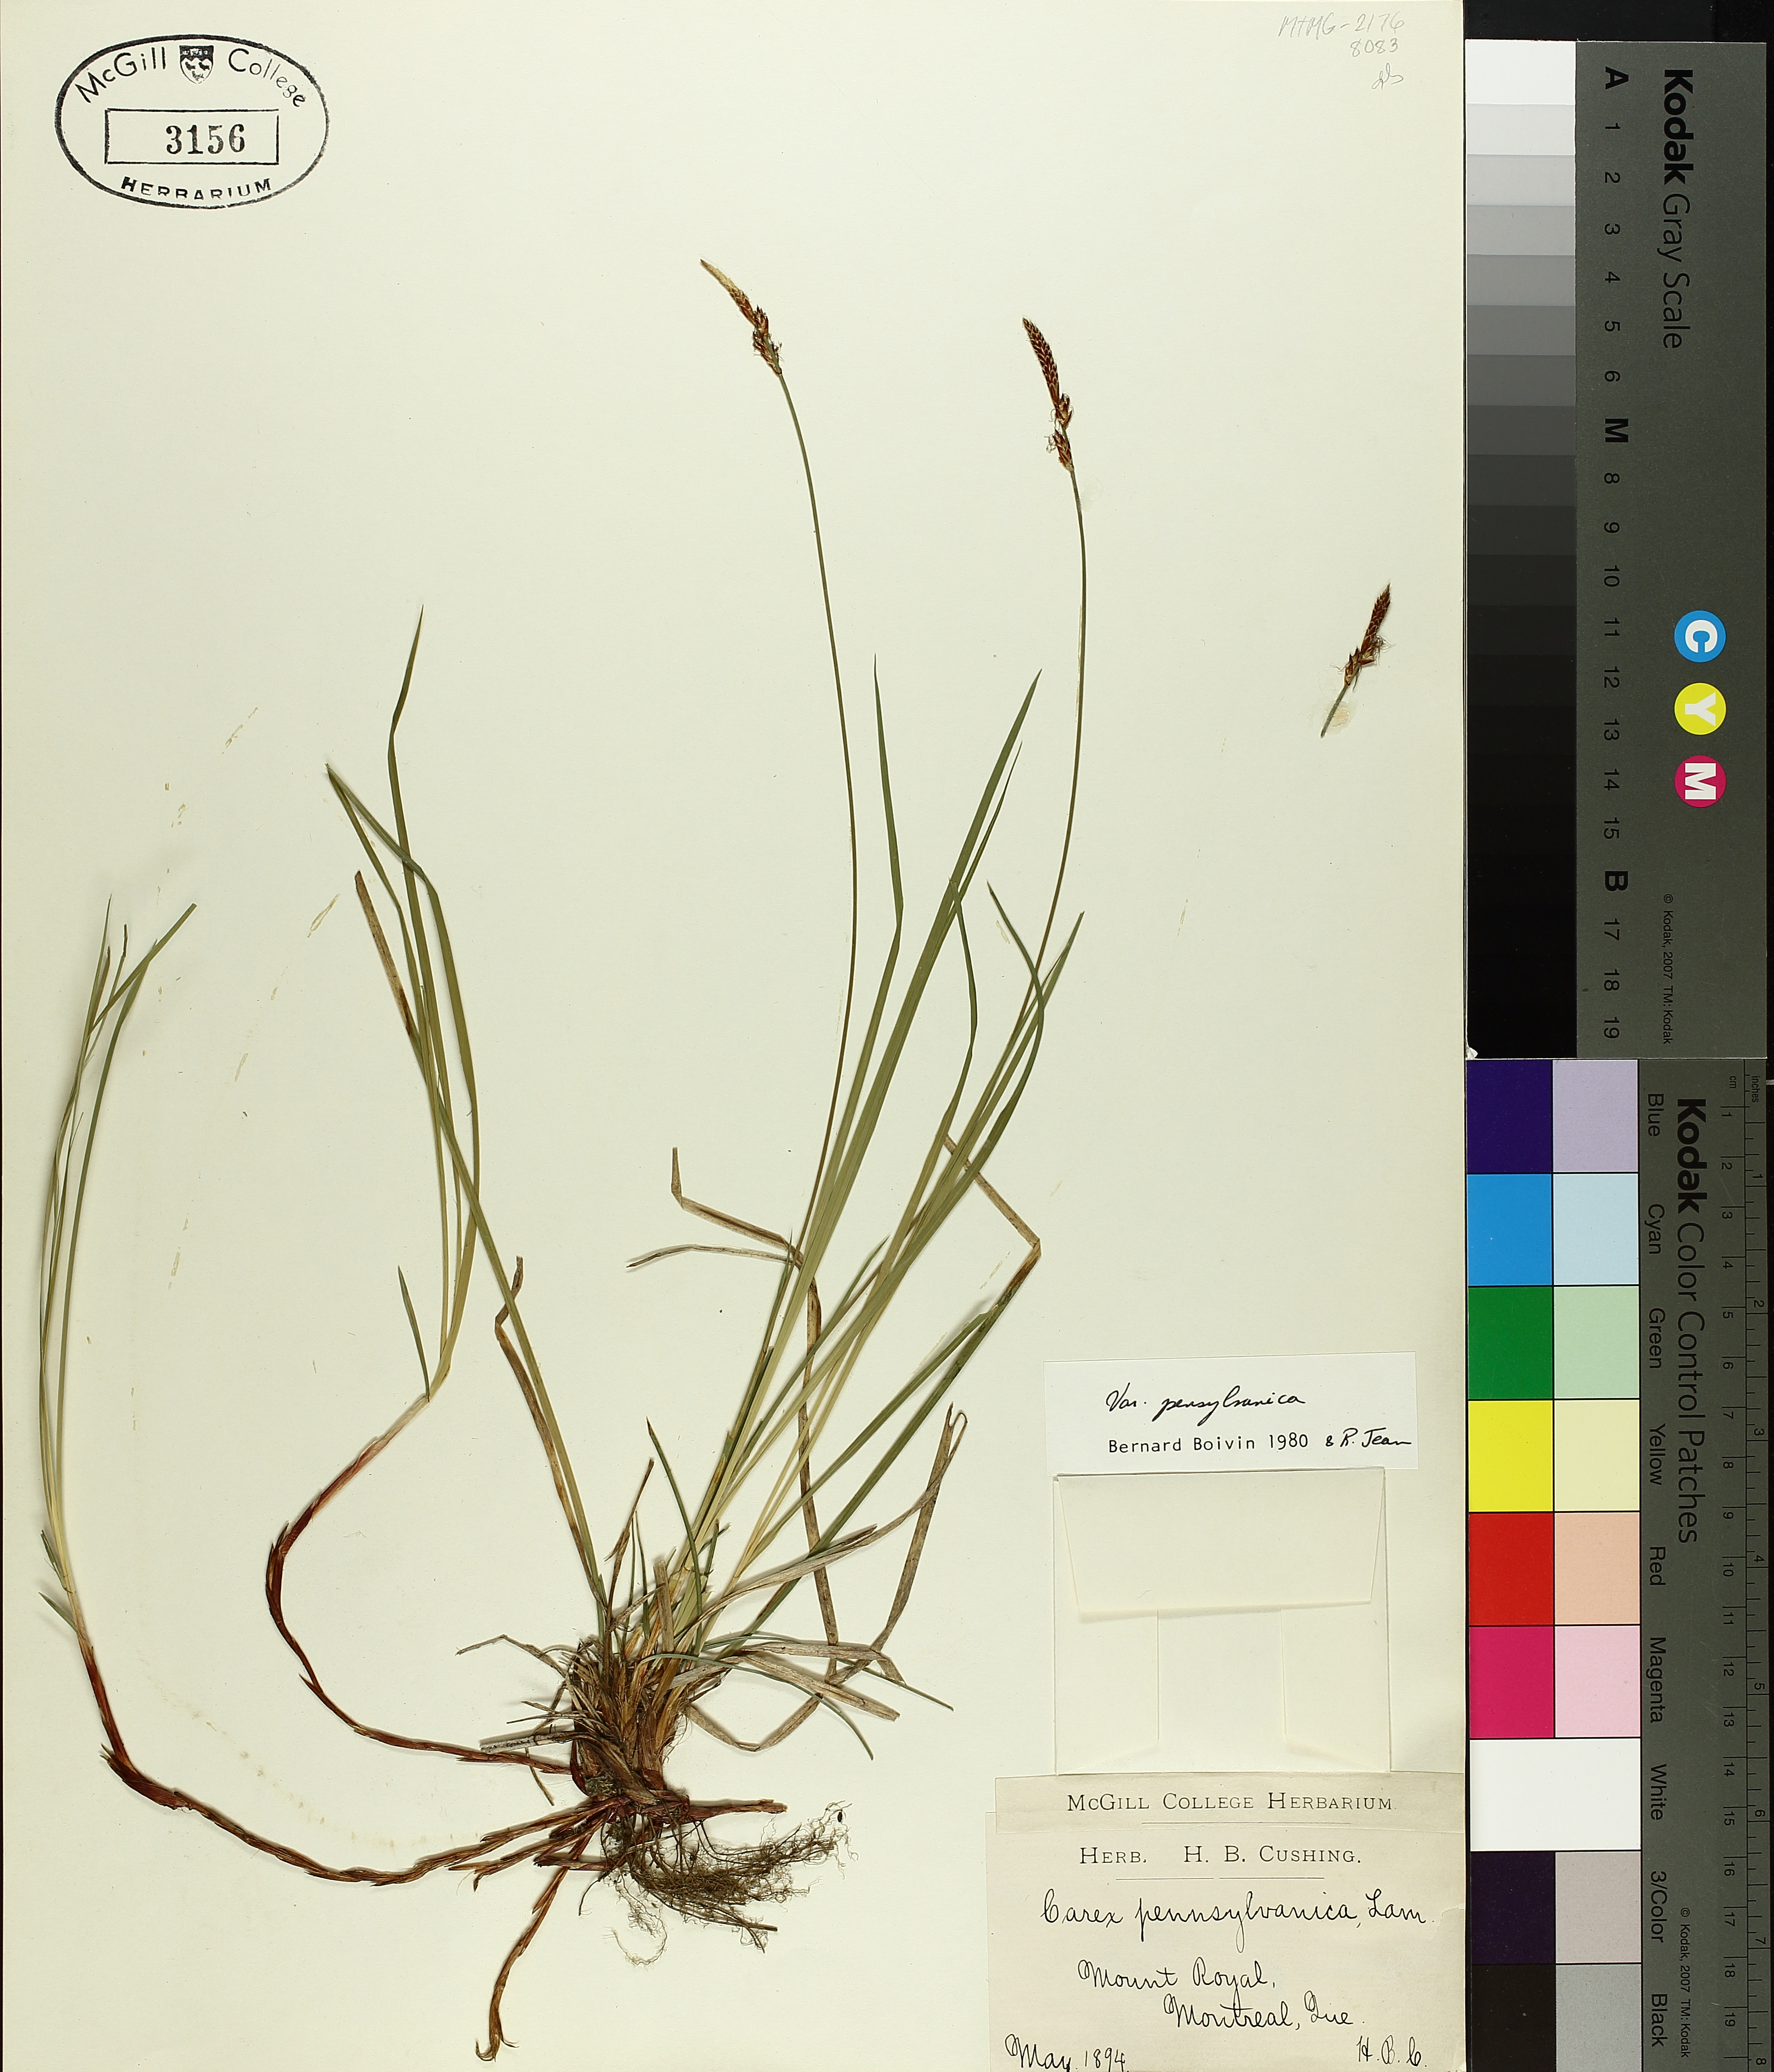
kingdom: Plantae
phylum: Tracheophyta
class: Liliopsida
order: Poales
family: Cyperaceae
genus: Carex
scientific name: Carex pensylvanica
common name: Common oak sedge
